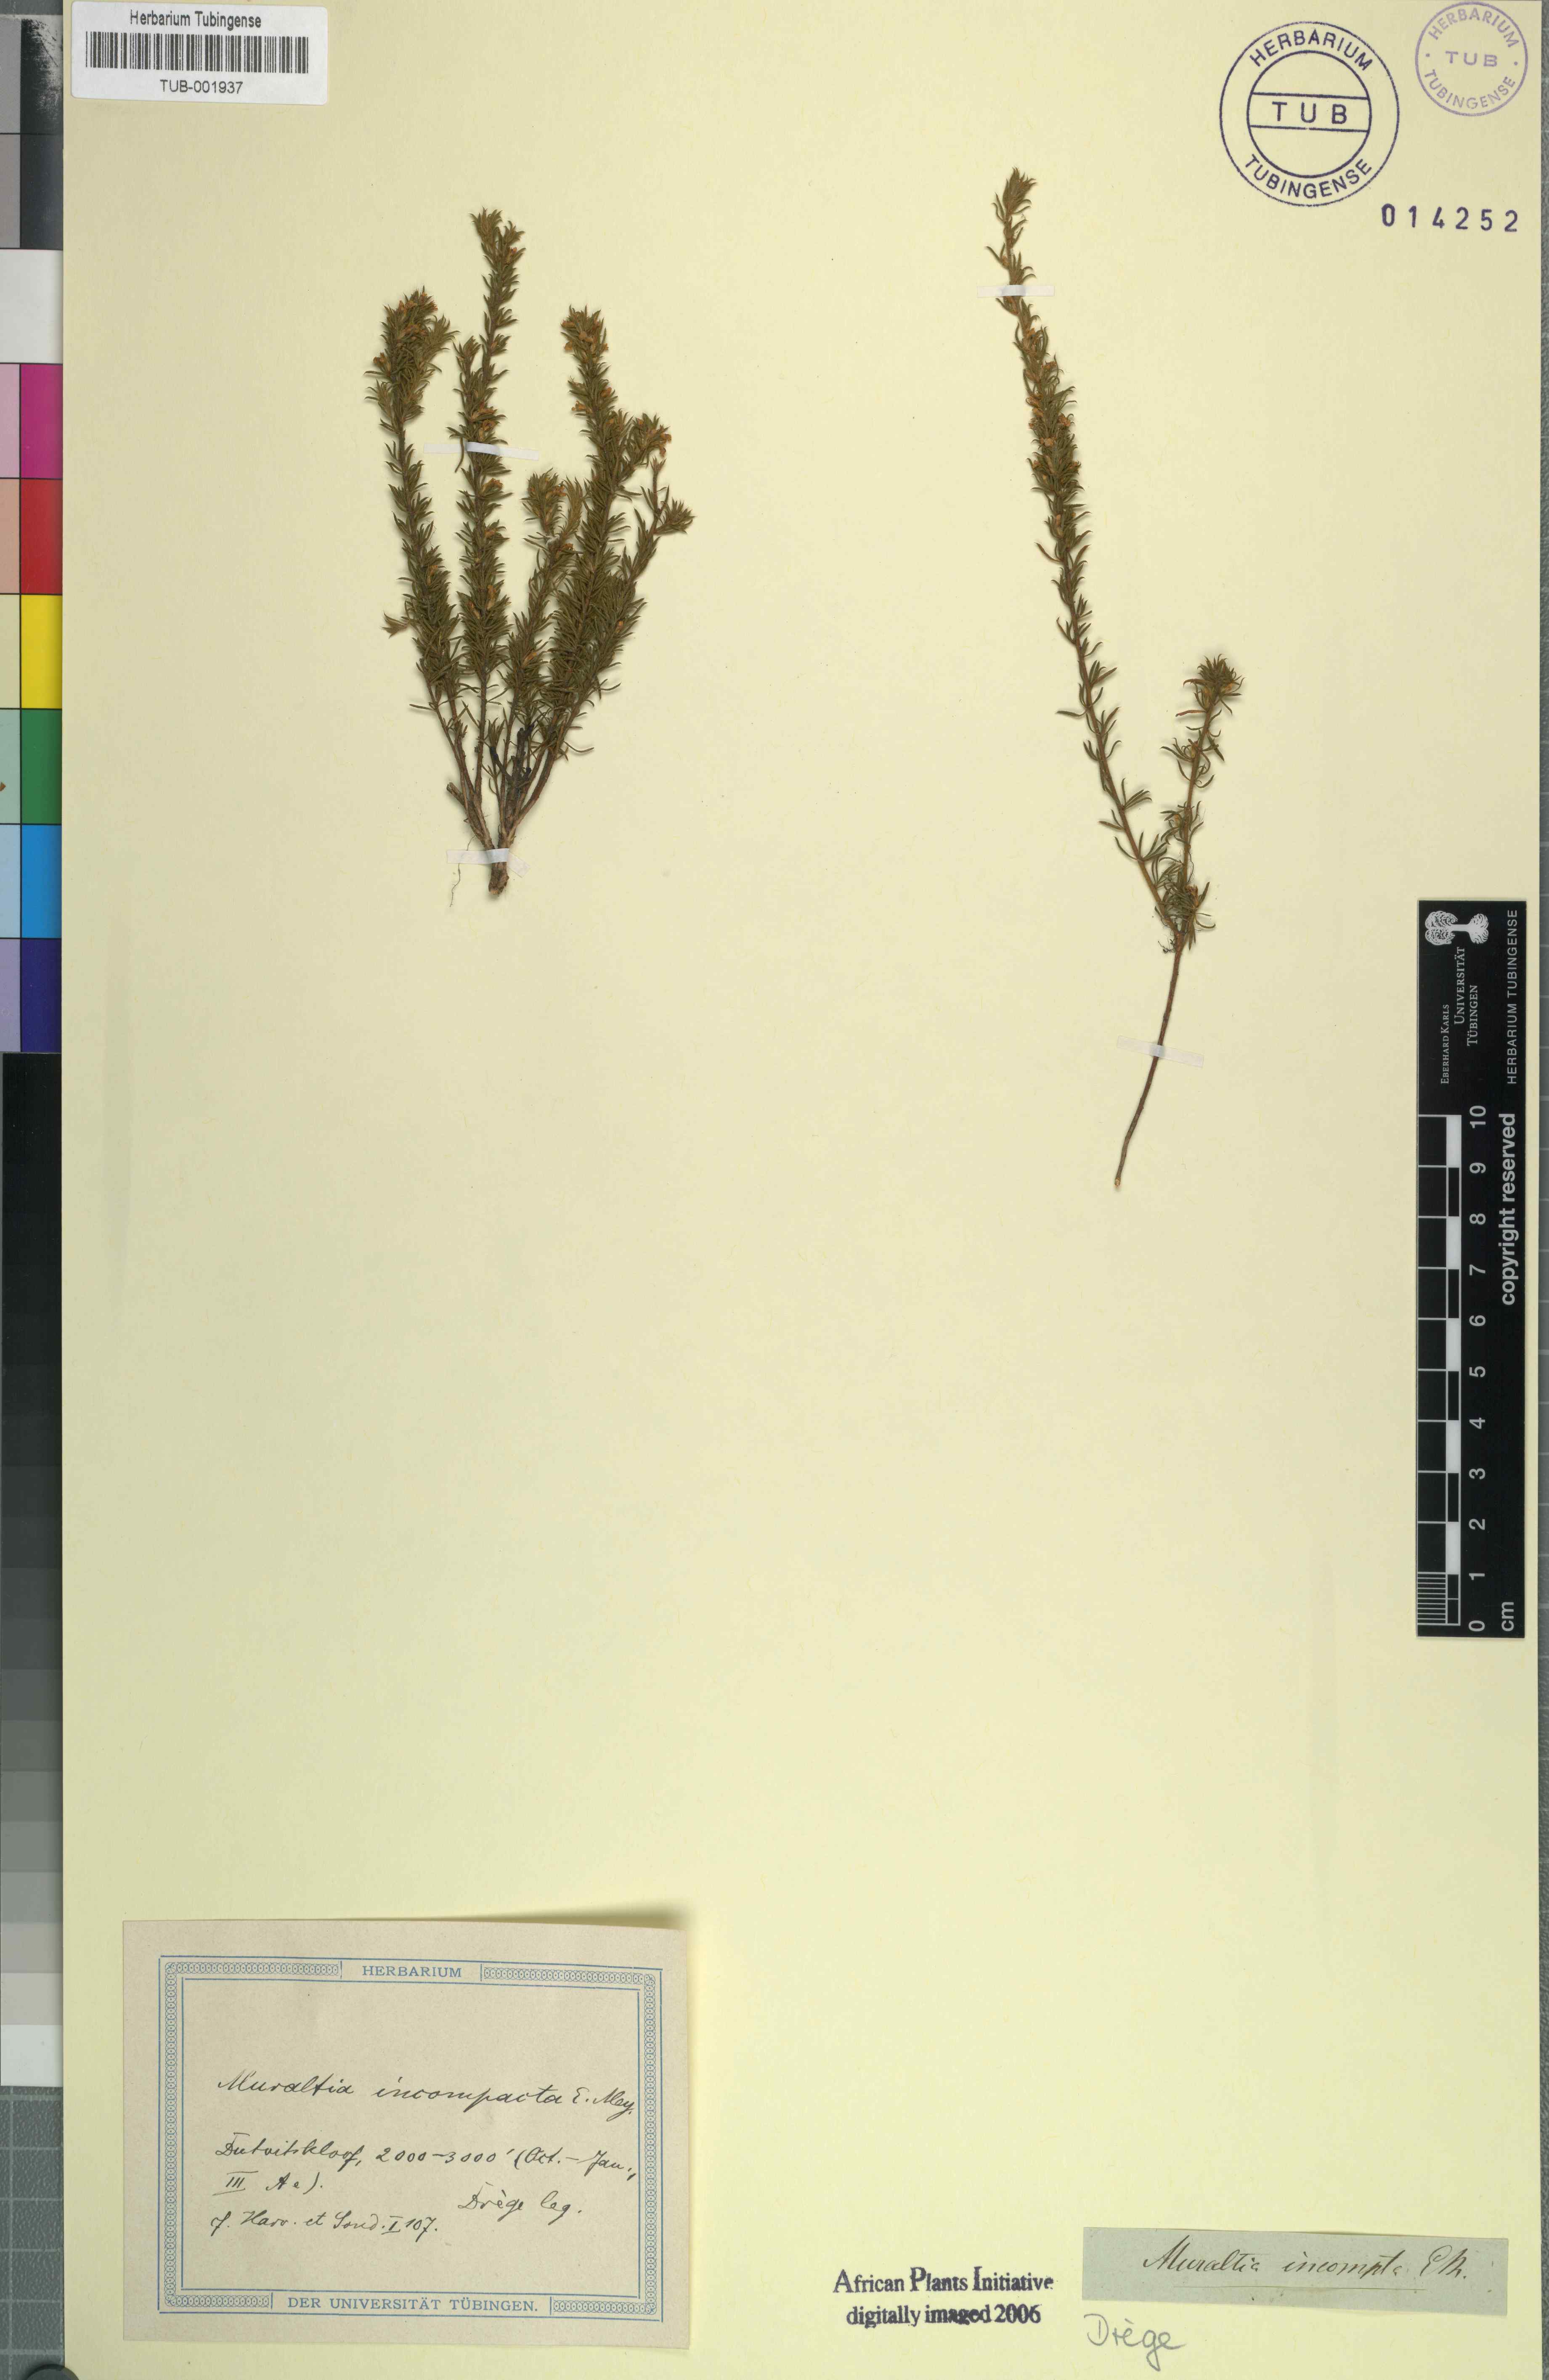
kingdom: Plantae
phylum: Tracheophyta
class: Magnoliopsida
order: Fabales
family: Polygalaceae
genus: Muraltia
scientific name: Muraltia divaricata
